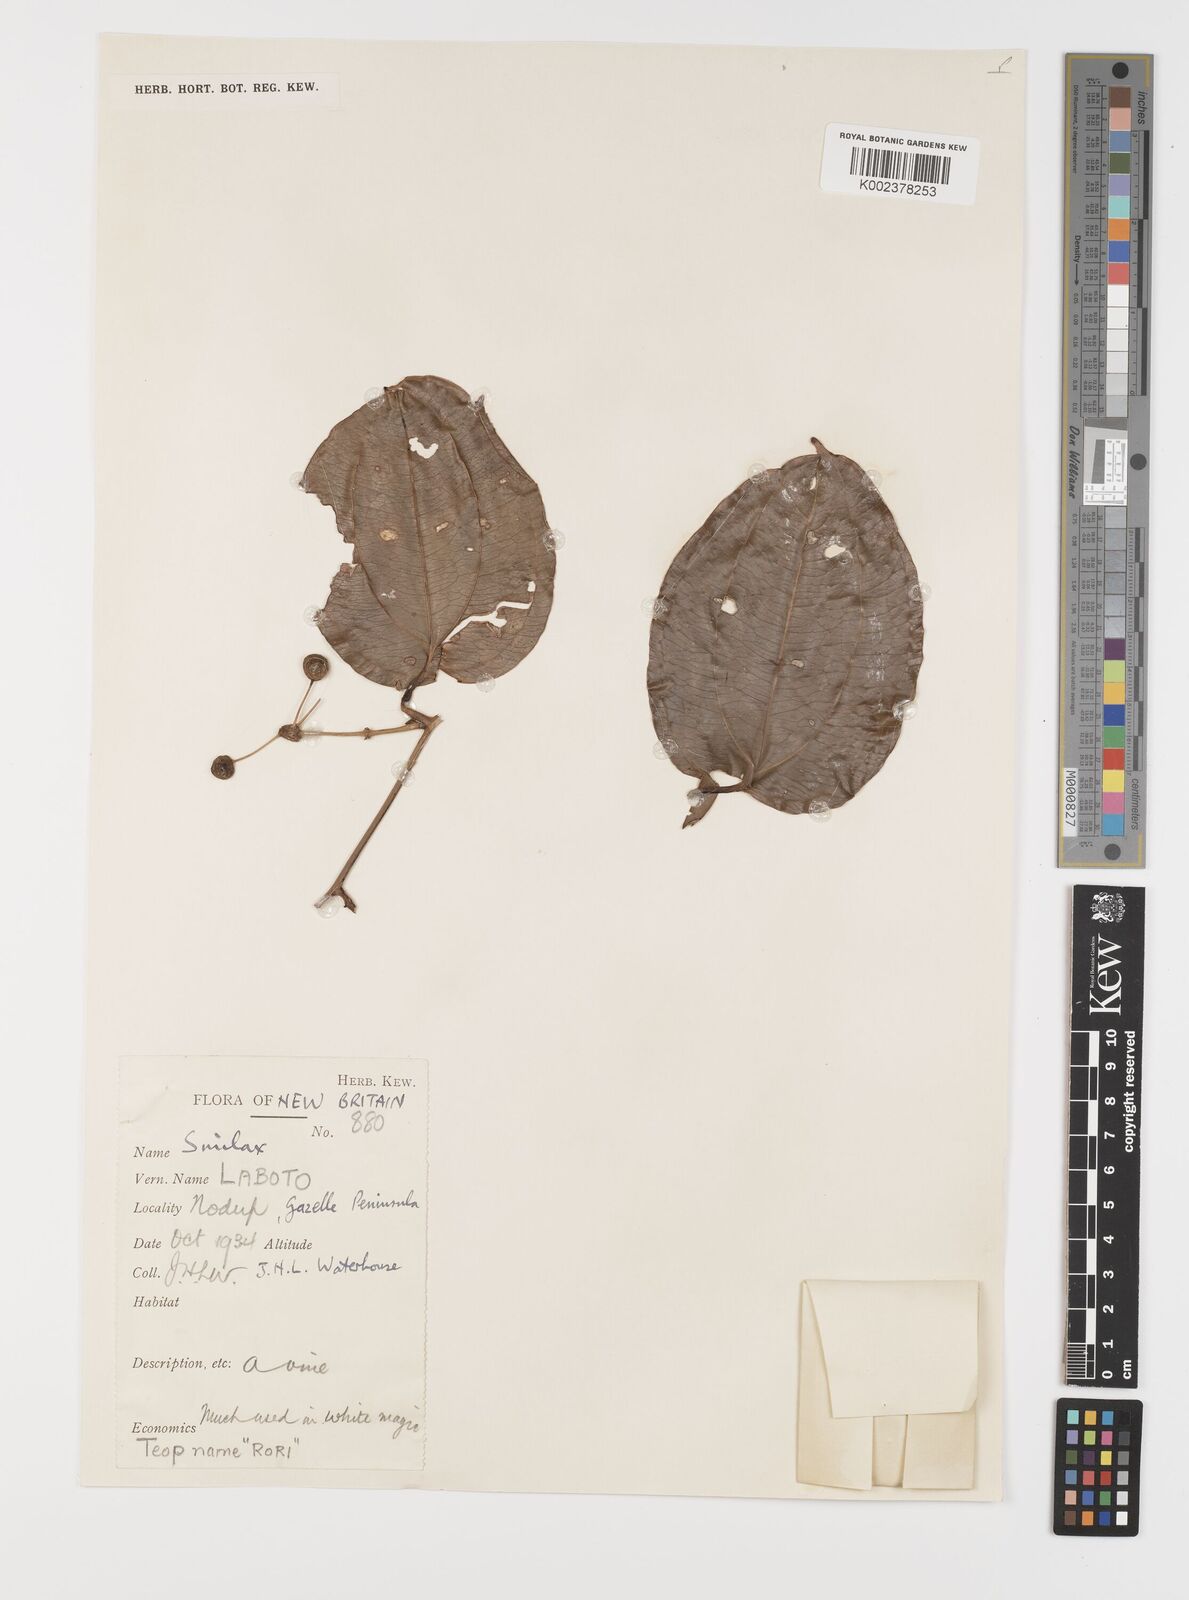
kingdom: Plantae
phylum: Tracheophyta
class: Liliopsida
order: Liliales
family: Smilacaceae
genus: Smilax
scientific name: Smilax
